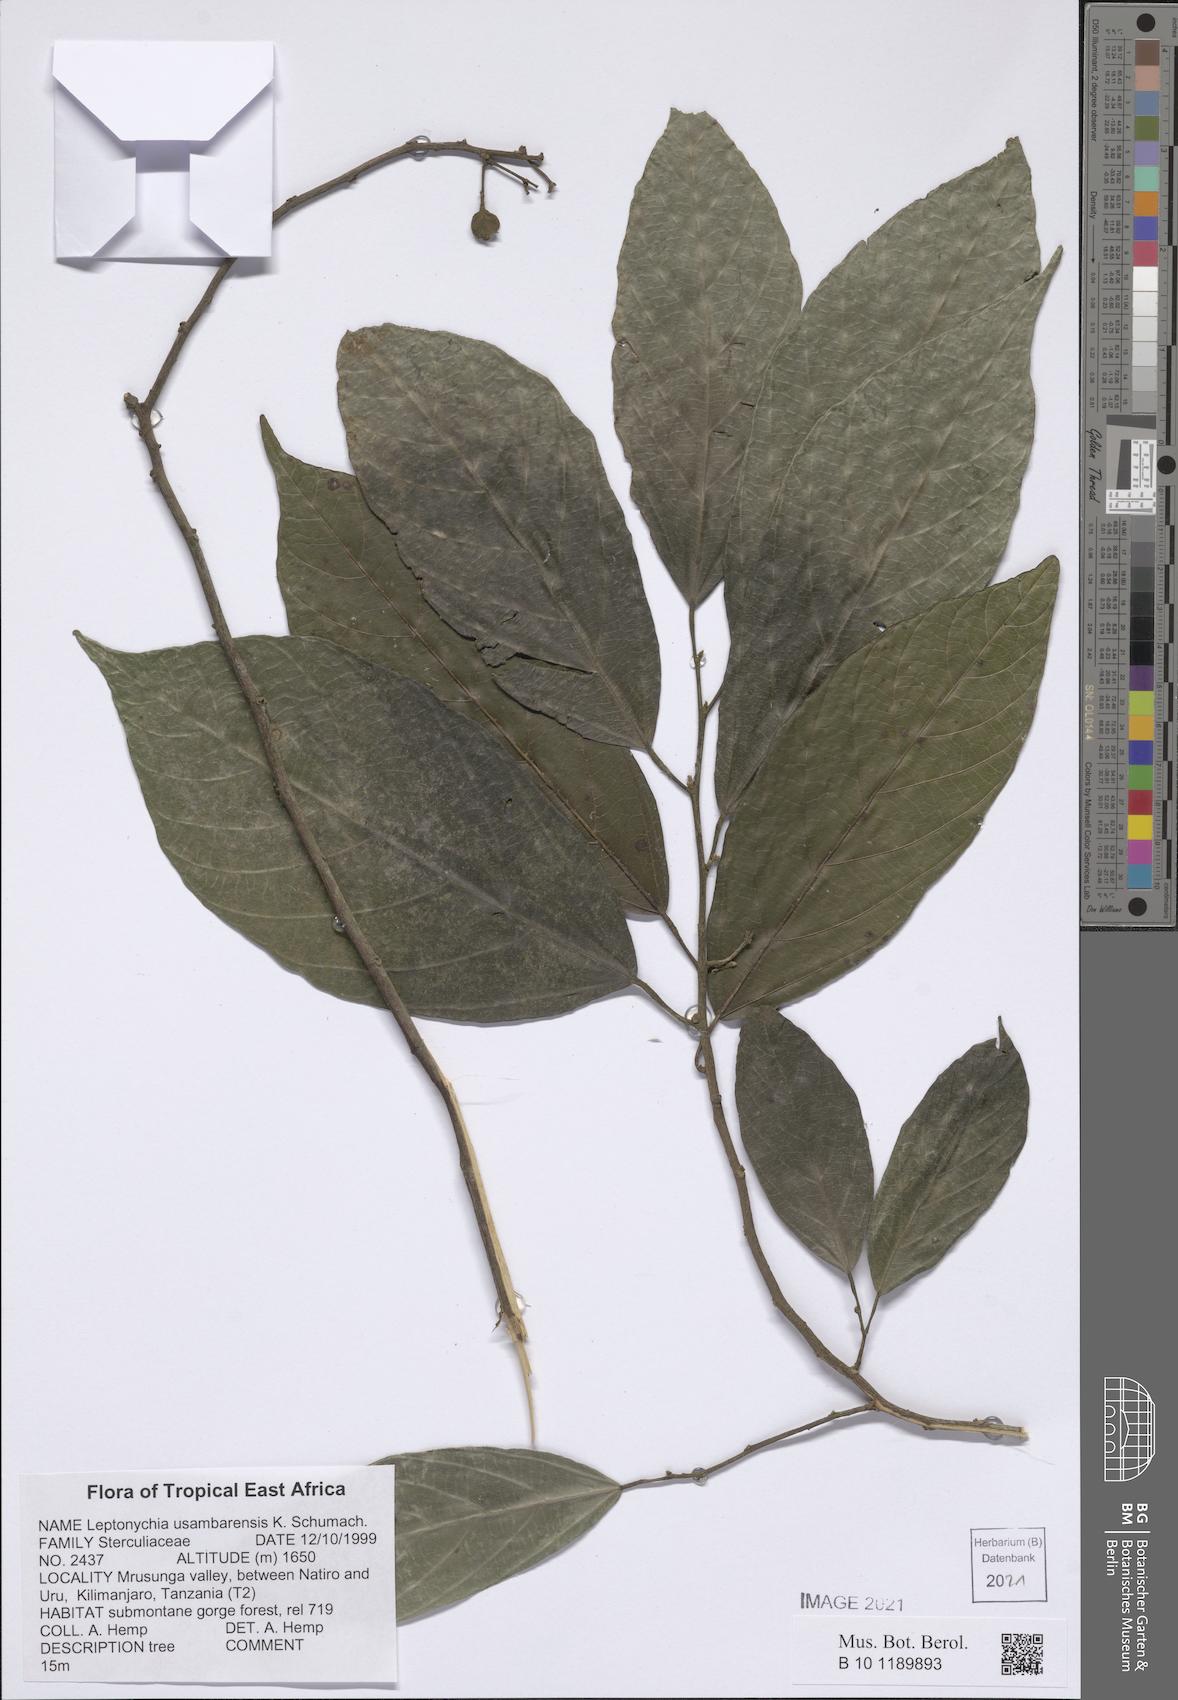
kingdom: Plantae
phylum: Tracheophyta
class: Magnoliopsida
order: Malvales
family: Malvaceae
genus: Leptonychia
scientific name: Leptonychia usambarensis
